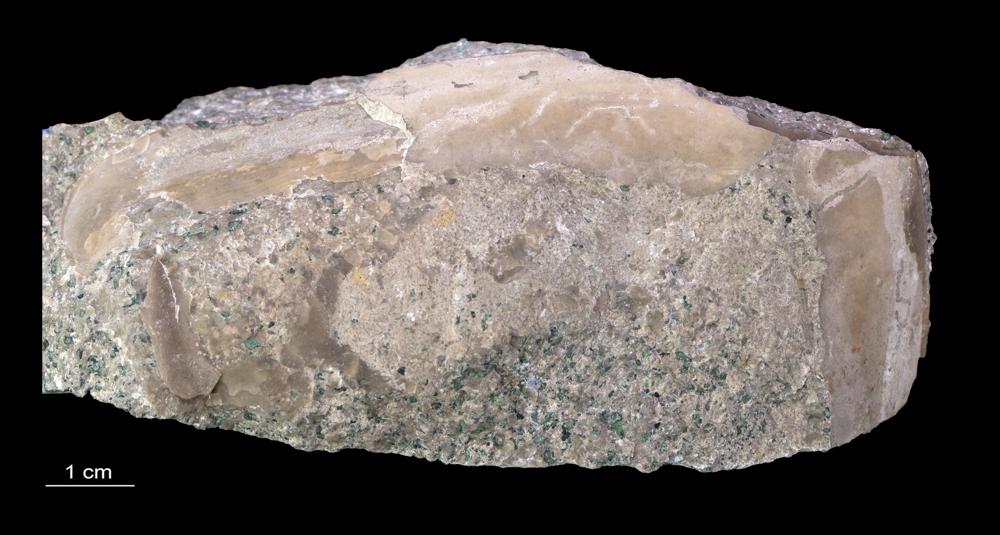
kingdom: Animalia
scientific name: Animalia
